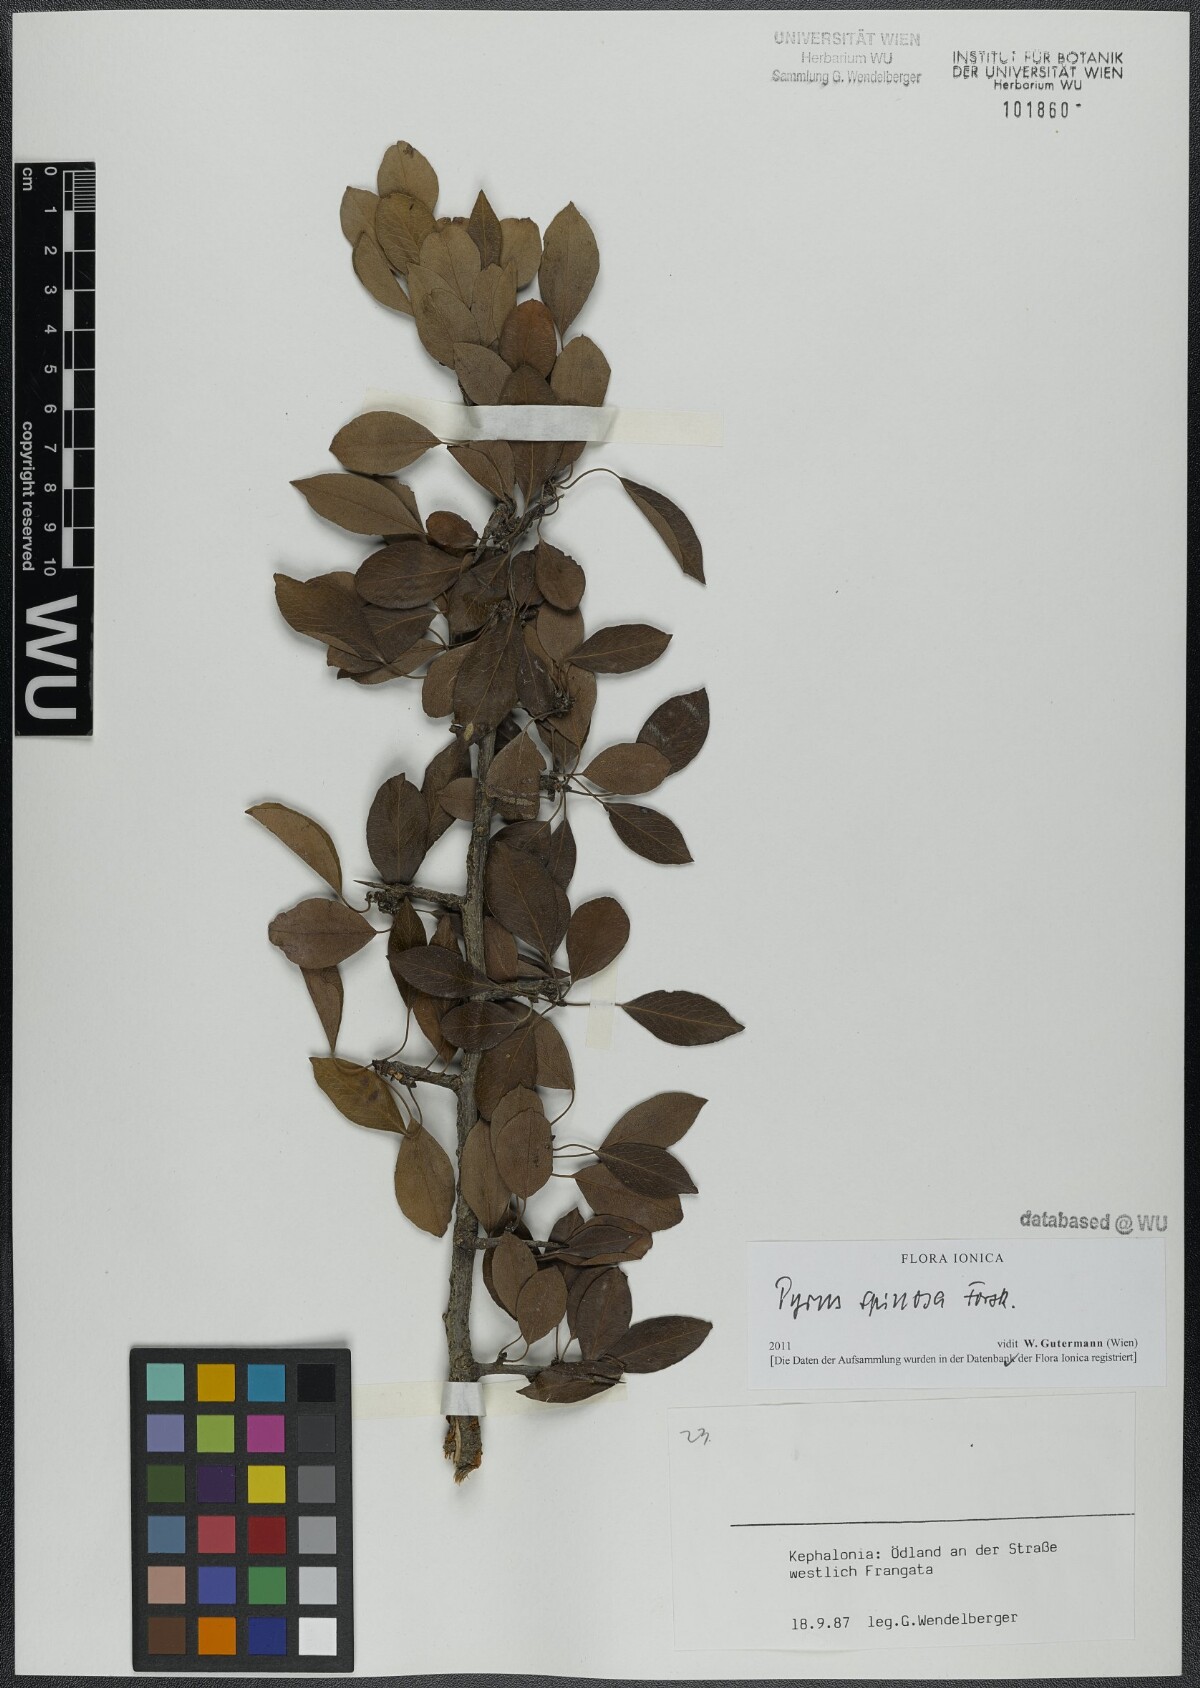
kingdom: Plantae
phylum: Tracheophyta
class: Magnoliopsida
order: Rosales
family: Rosaceae
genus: Pyrus
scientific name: Pyrus spinosa
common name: Almond-leaf pear
